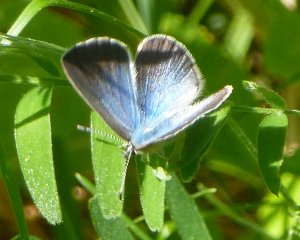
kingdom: Animalia
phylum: Arthropoda
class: Insecta
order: Lepidoptera
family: Lycaenidae
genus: Glaucopsyche
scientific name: Glaucopsyche lygdamus
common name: Silvery Blue
